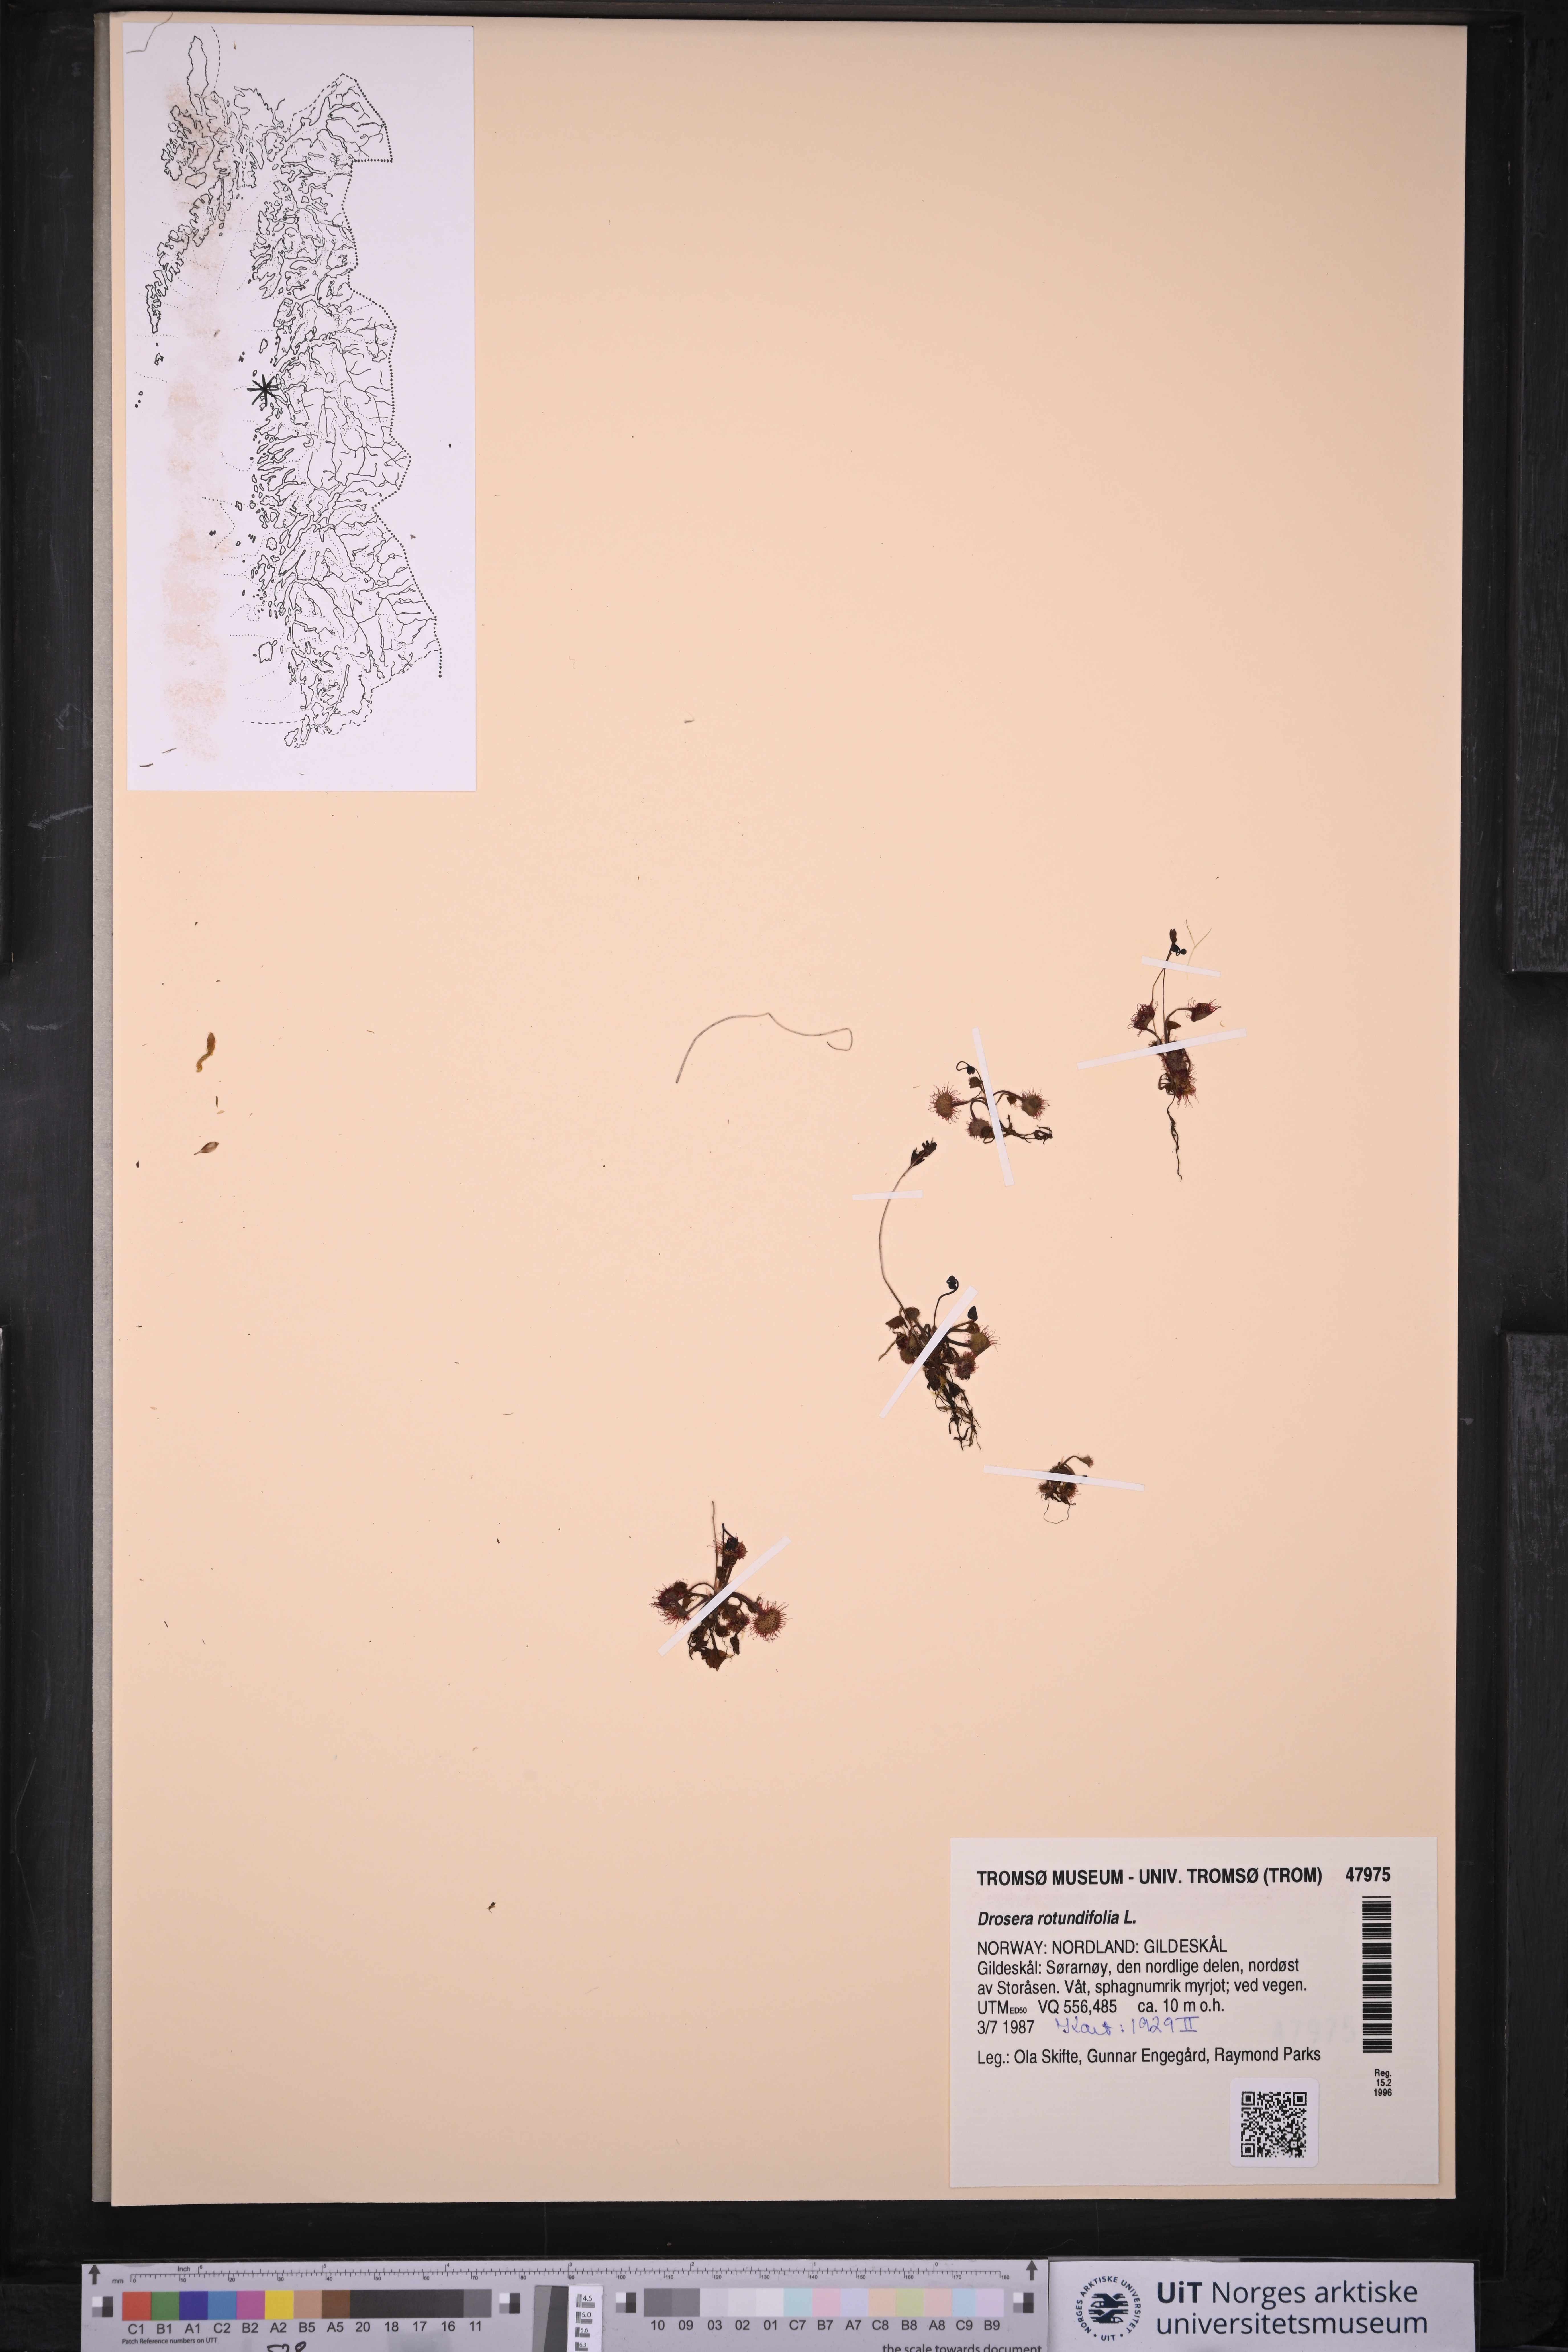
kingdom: Plantae
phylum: Tracheophyta
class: Magnoliopsida
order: Caryophyllales
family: Droseraceae
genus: Drosera
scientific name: Drosera rotundifolia
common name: Round-leaved sundew
